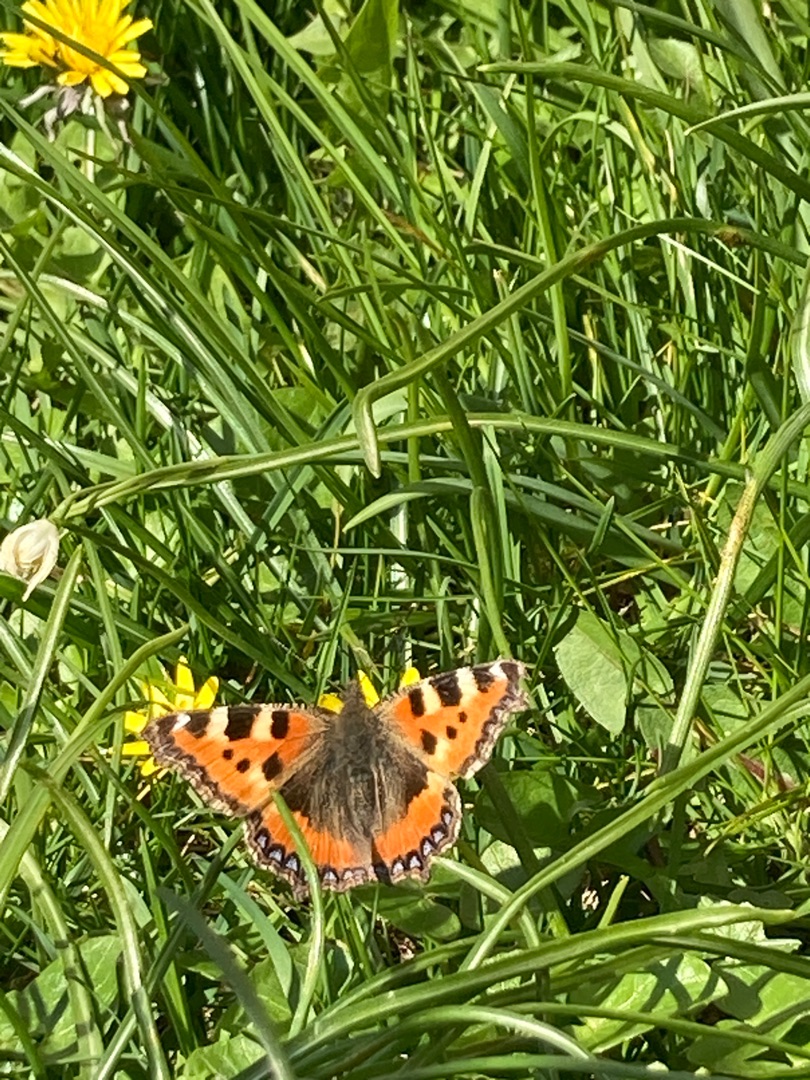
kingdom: Animalia
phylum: Arthropoda
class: Insecta
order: Lepidoptera
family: Nymphalidae
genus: Aglais
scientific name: Aglais urticae
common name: Nældens takvinge
